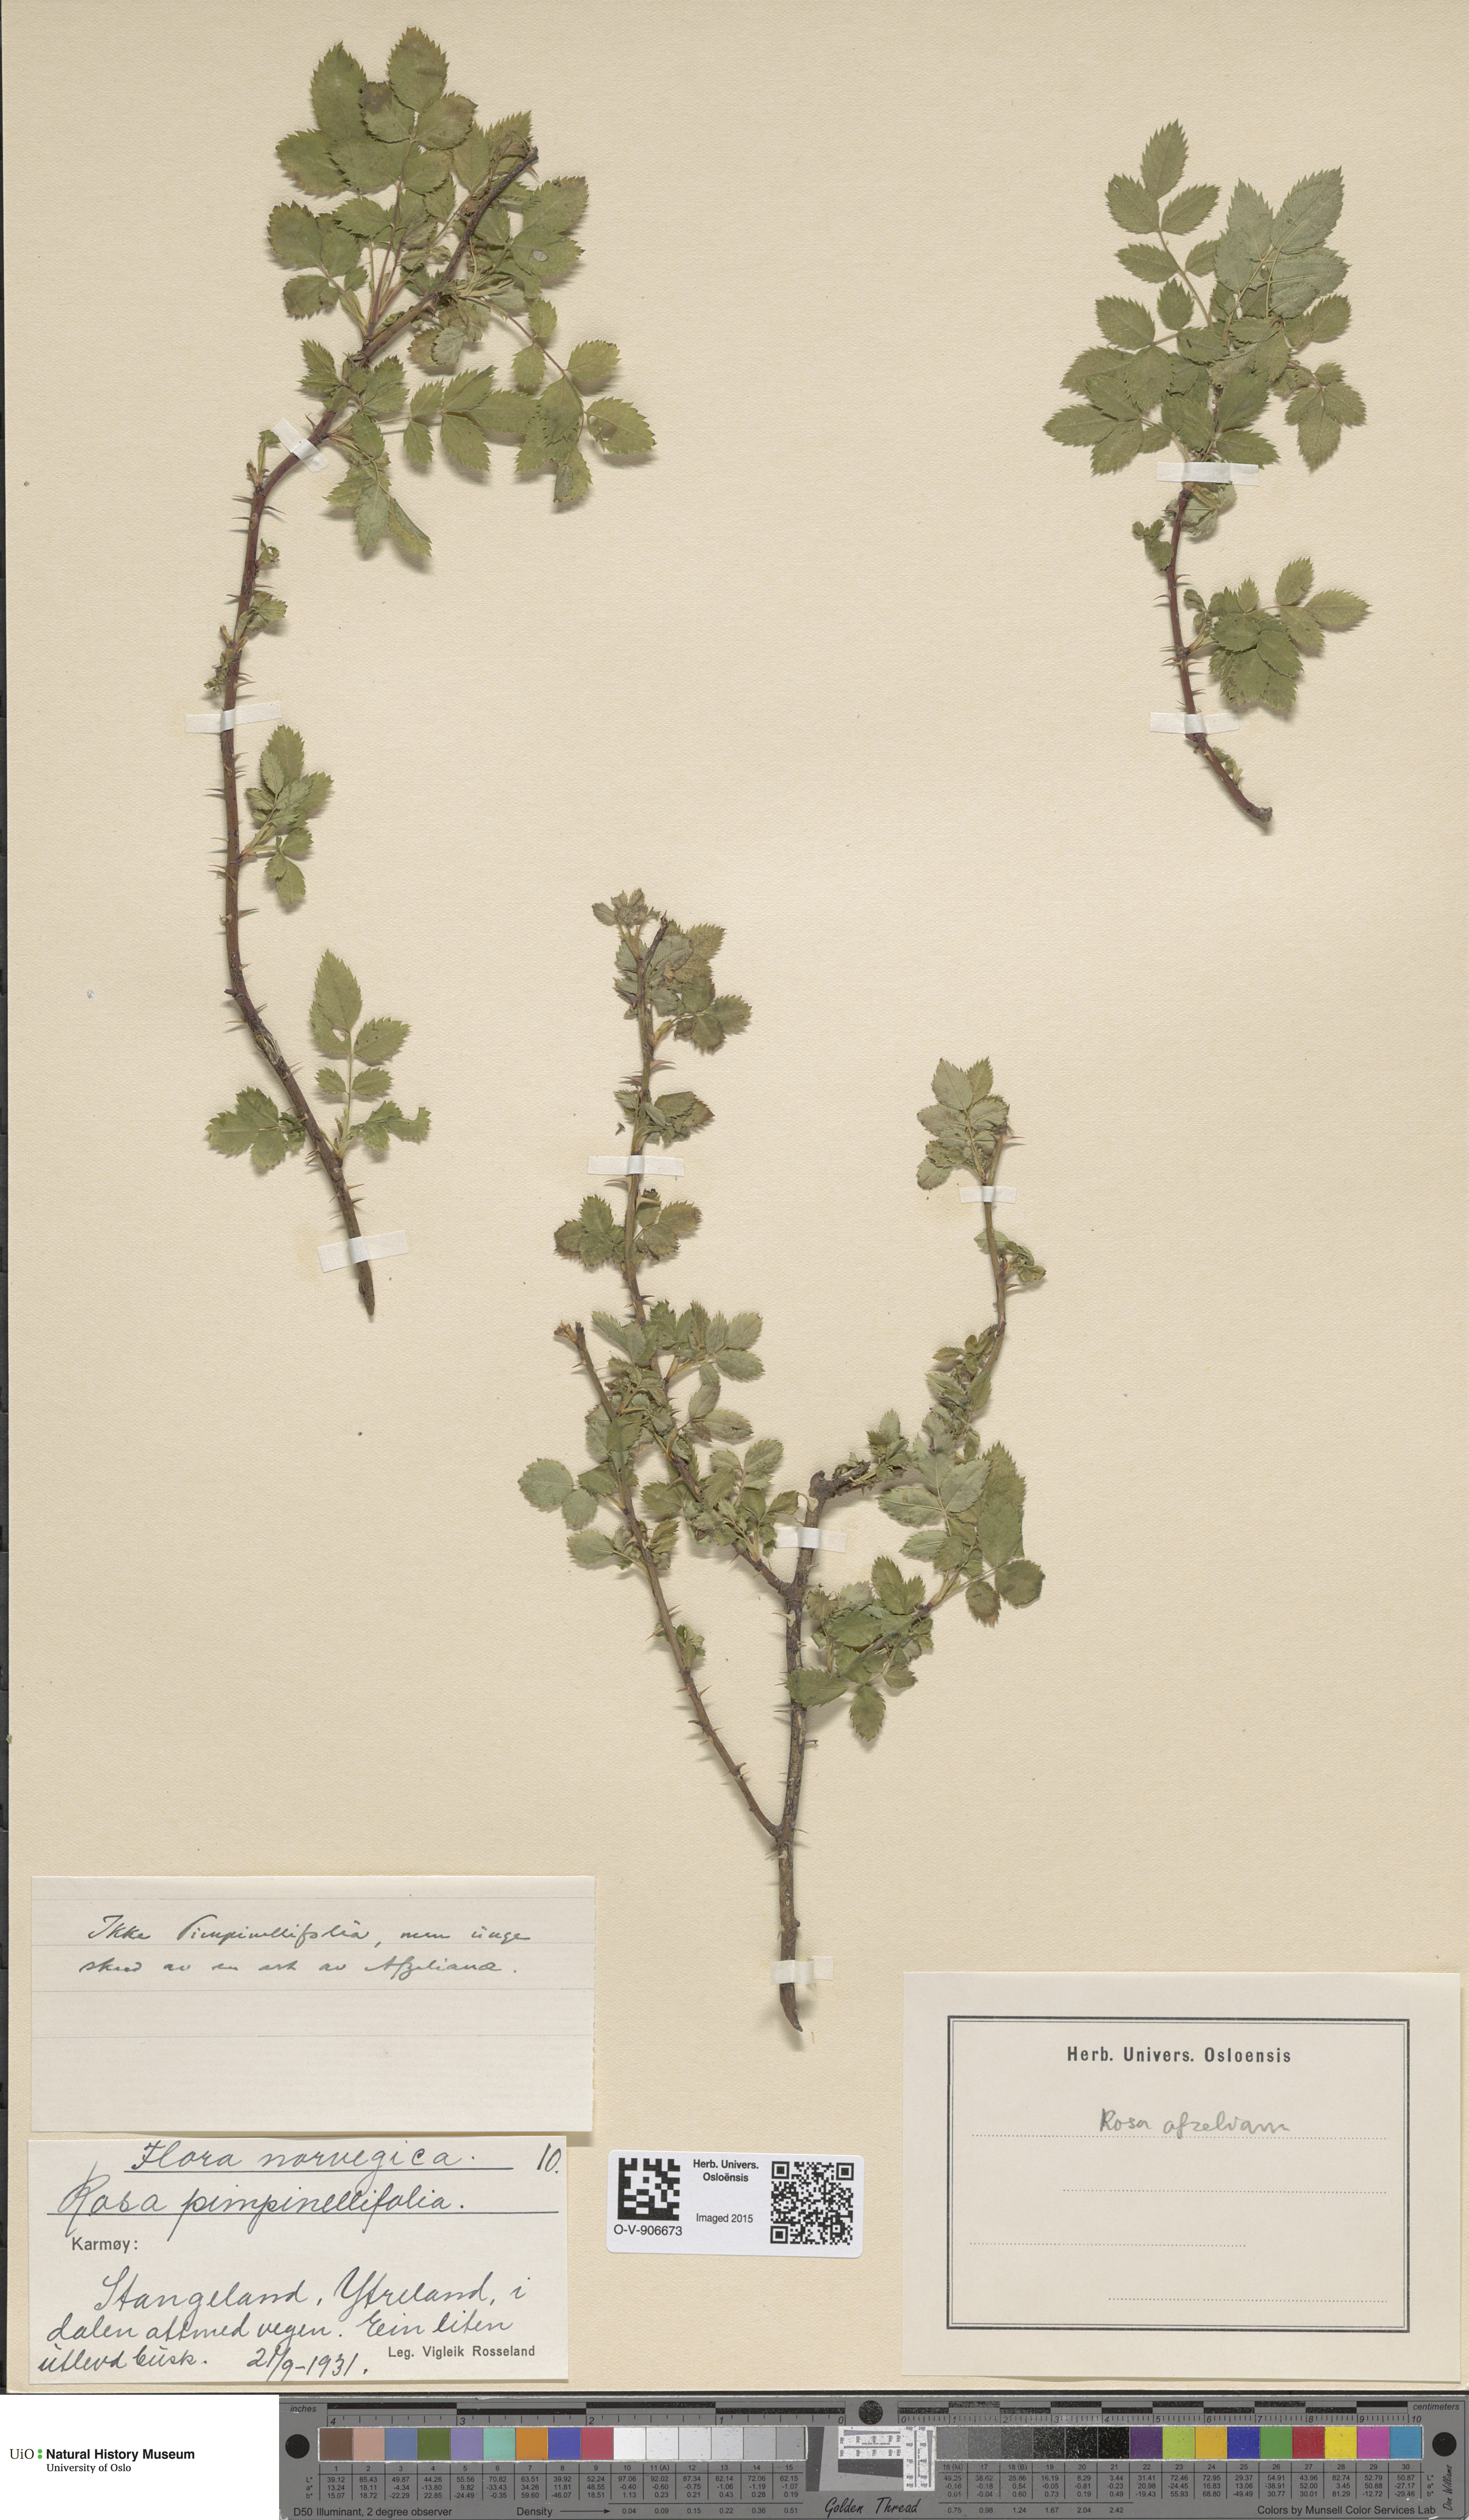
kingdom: Plantae
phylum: Tracheophyta
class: Magnoliopsida
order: Rosales
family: Rosaceae
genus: Rosa
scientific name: Rosa spinosissima
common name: Burnet rose
